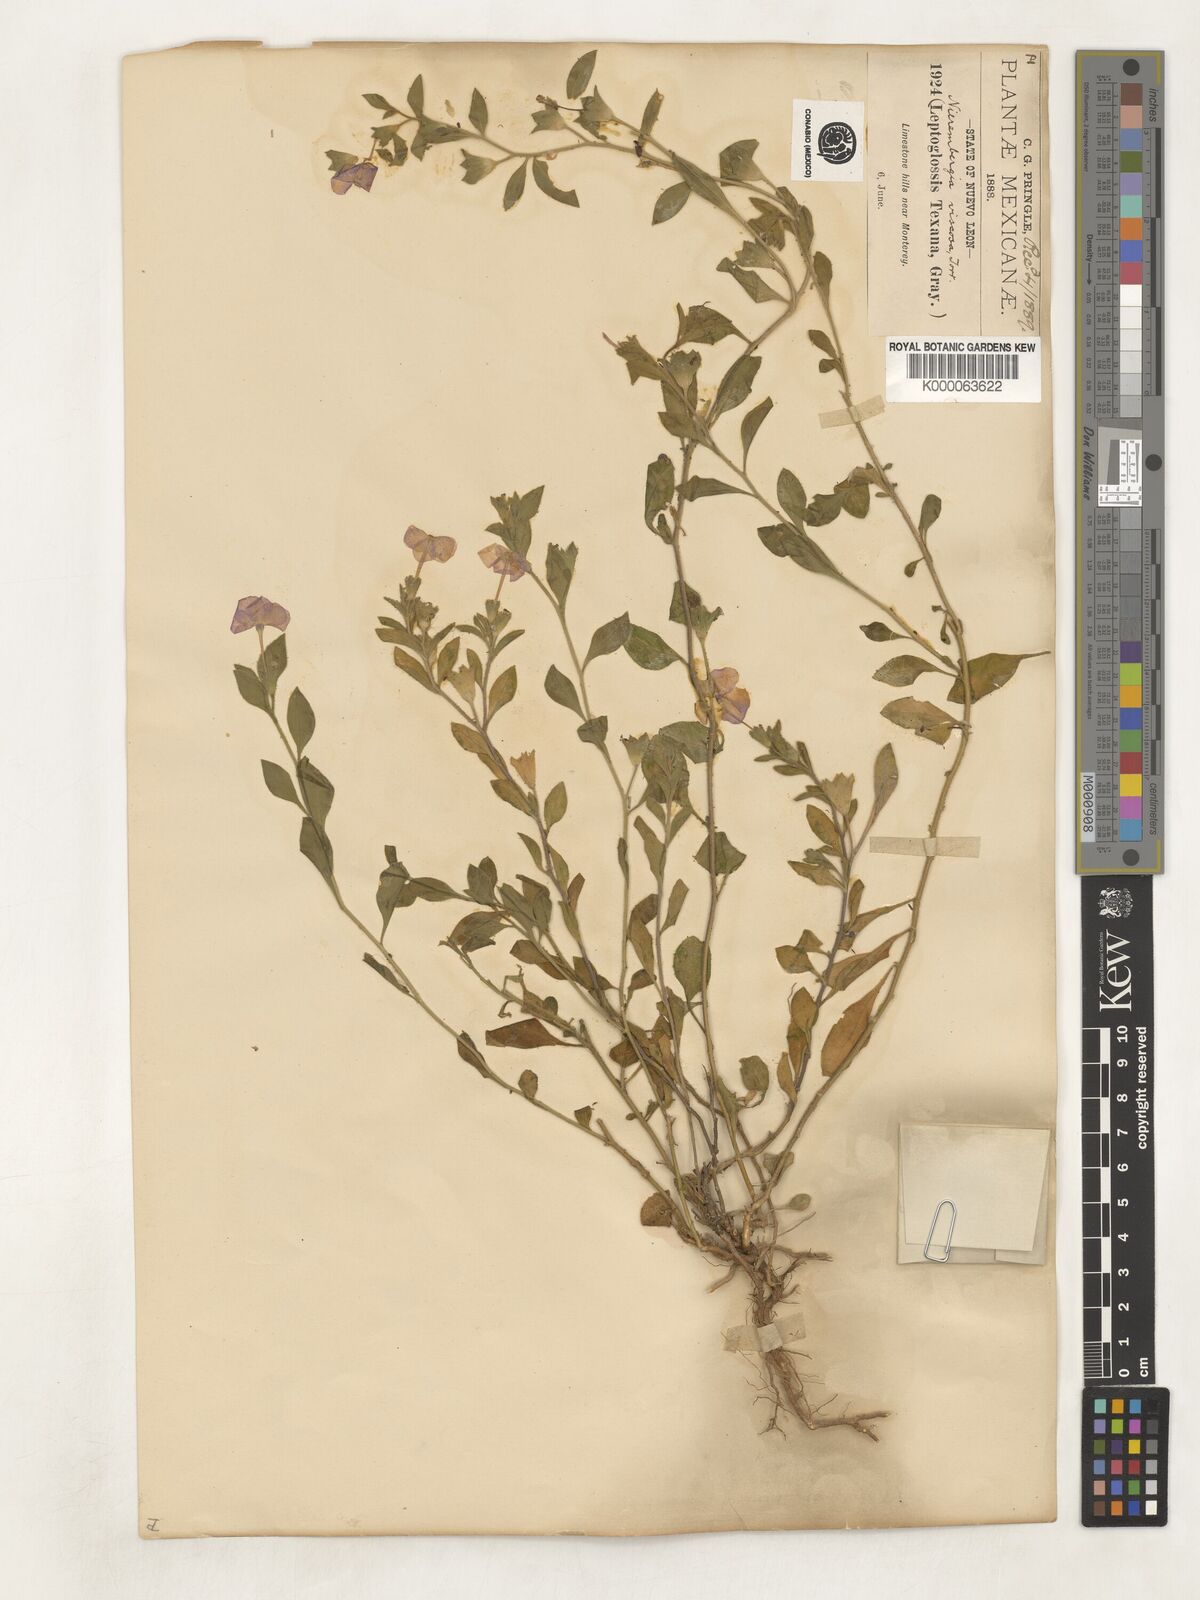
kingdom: Plantae
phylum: Tracheophyta
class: Magnoliopsida
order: Solanales
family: Solanaceae
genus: Hunzikeria
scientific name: Hunzikeria texana
